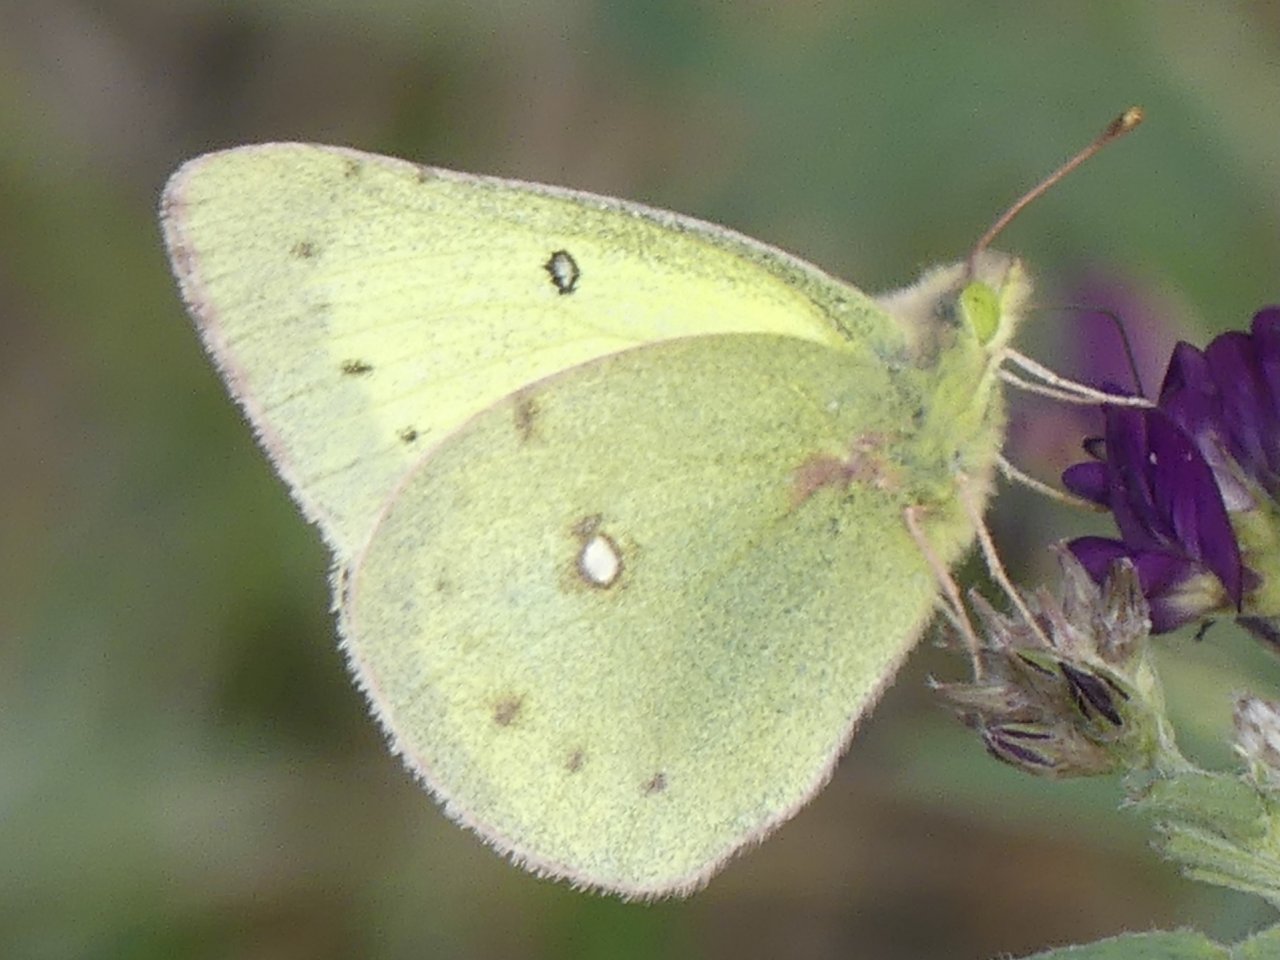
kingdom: Animalia
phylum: Arthropoda
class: Insecta
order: Lepidoptera
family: Pieridae
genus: Colias
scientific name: Colias philodice
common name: Clouded Sulphur
